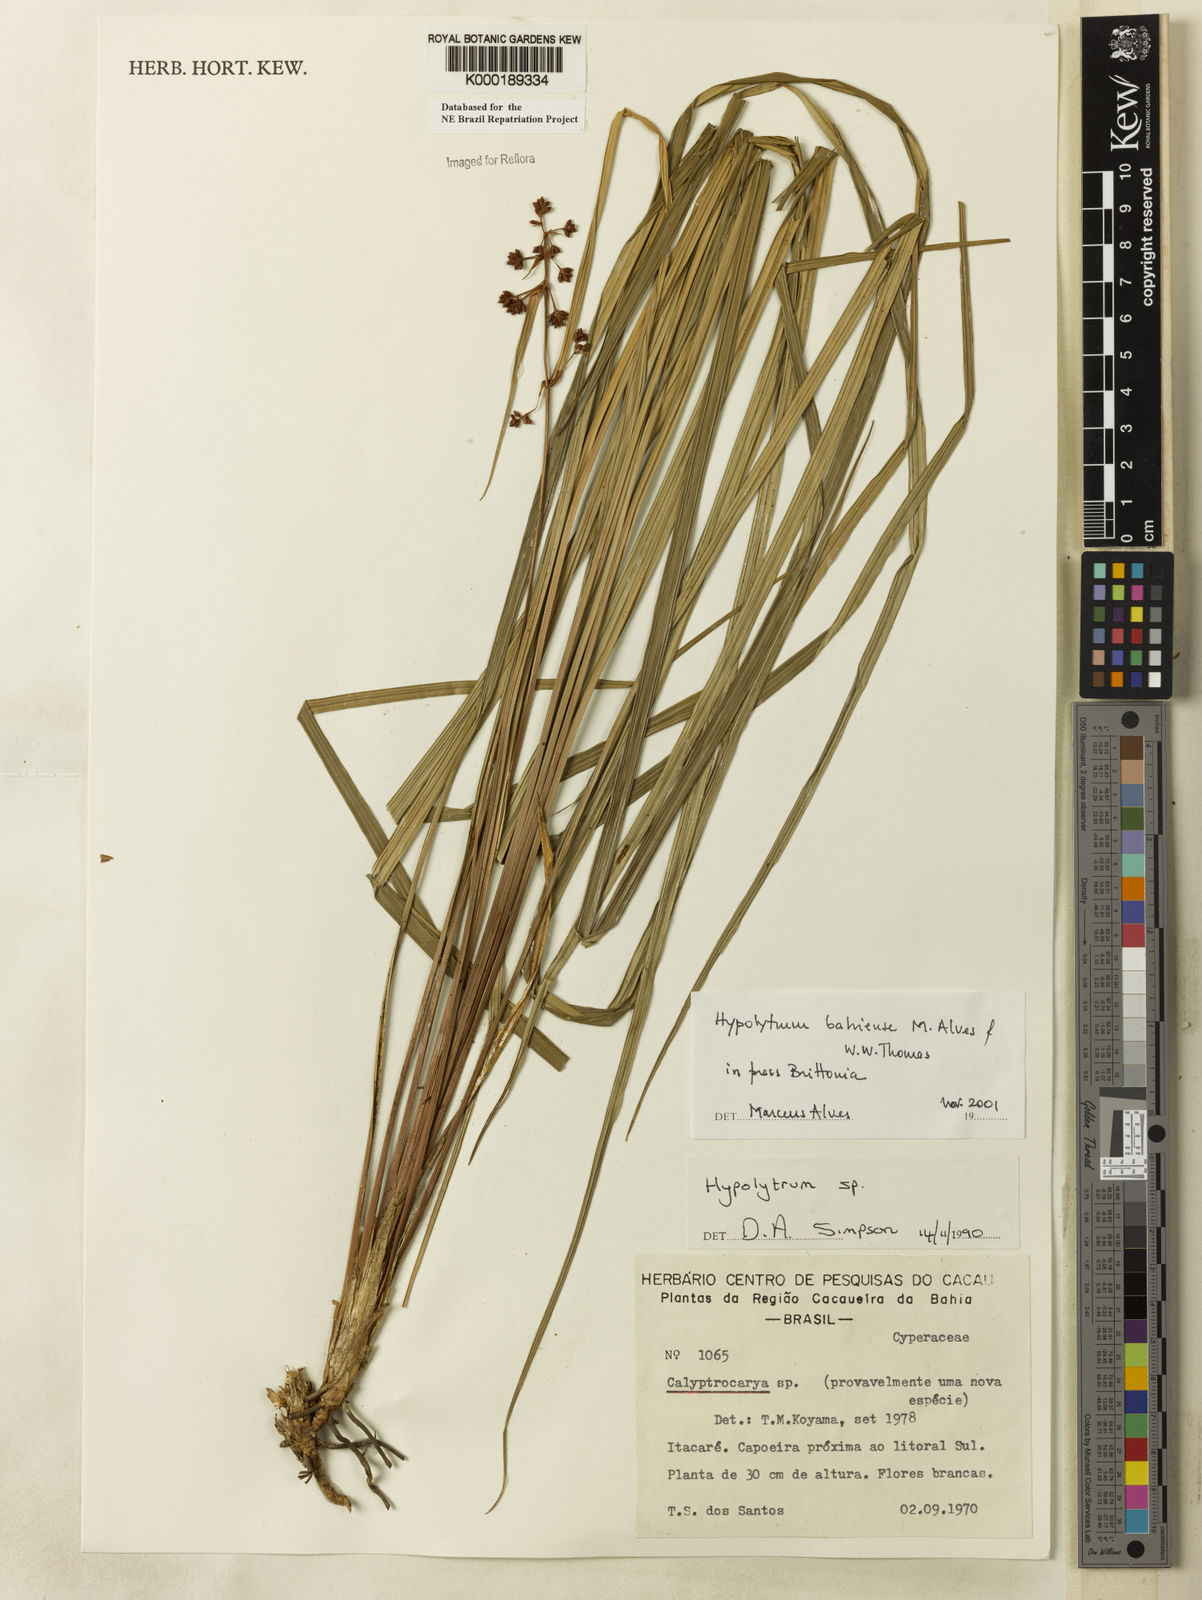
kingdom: Plantae
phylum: Tracheophyta
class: Liliopsida
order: Poales
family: Cyperaceae
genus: Hypolytrum
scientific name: Hypolytrum bahiense
